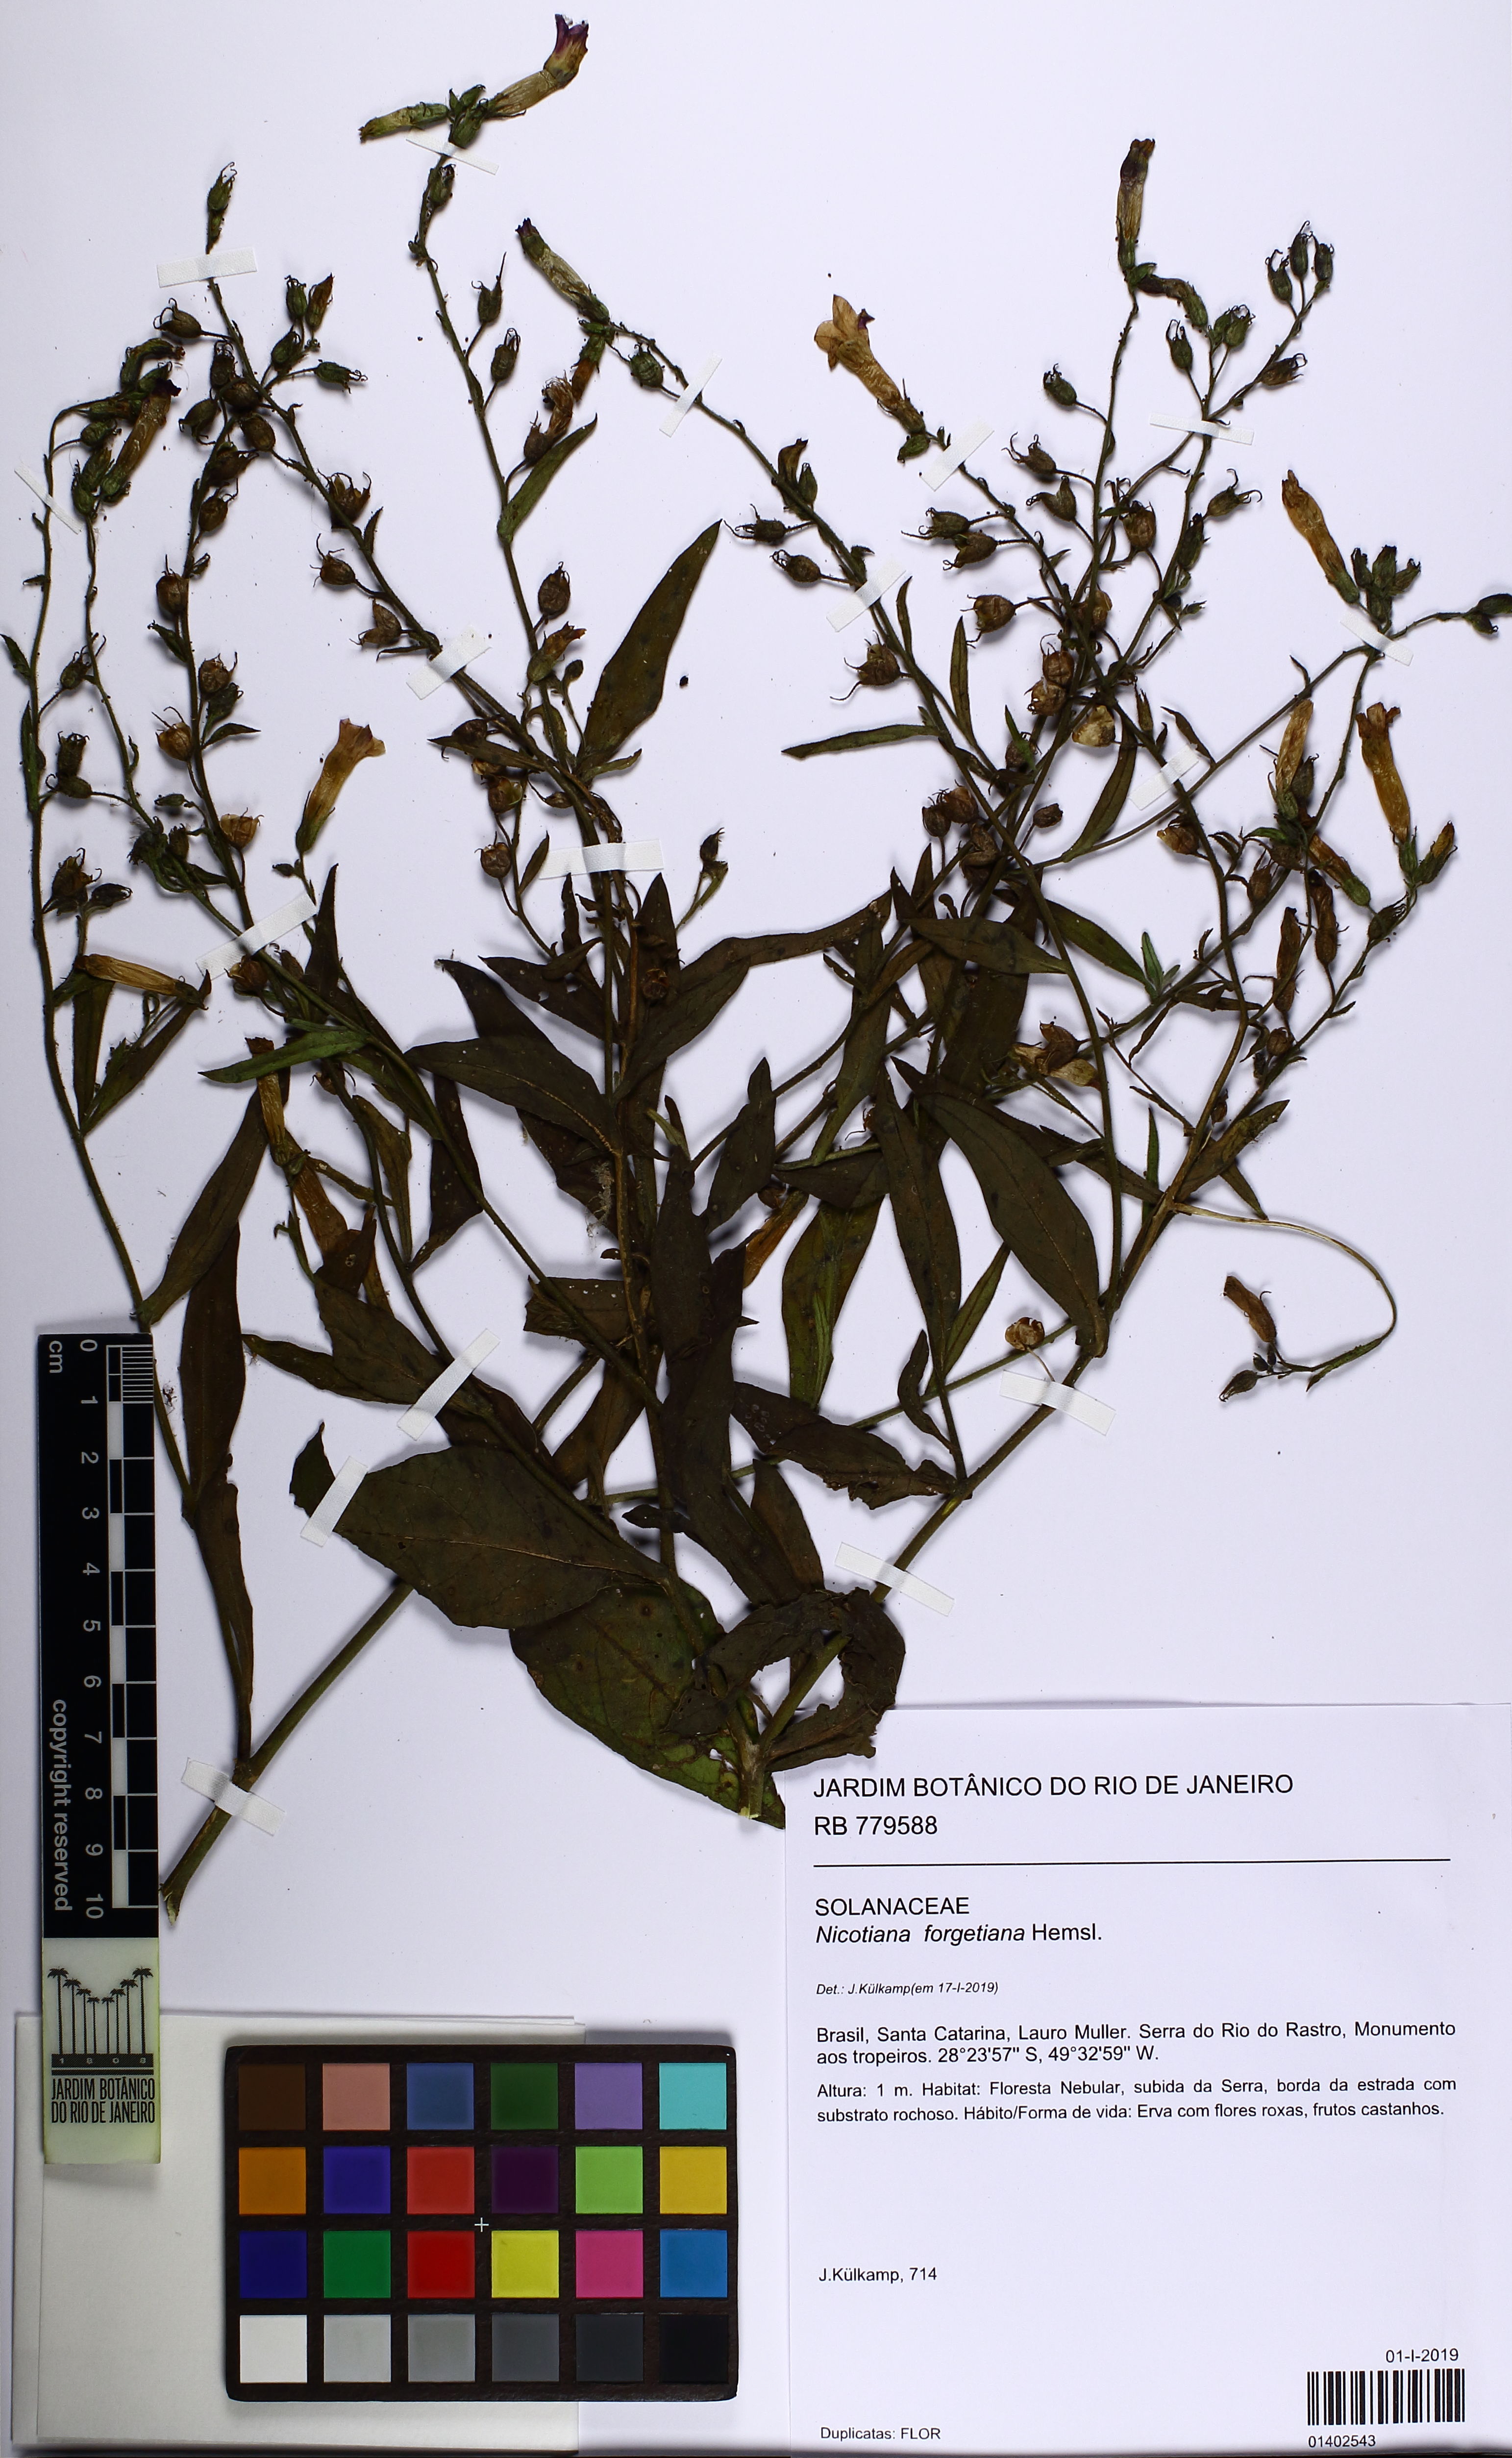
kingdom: Plantae
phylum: Tracheophyta
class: Magnoliopsida
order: Solanales
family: Solanaceae
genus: Nicotiana
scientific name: Nicotiana forgetiana
